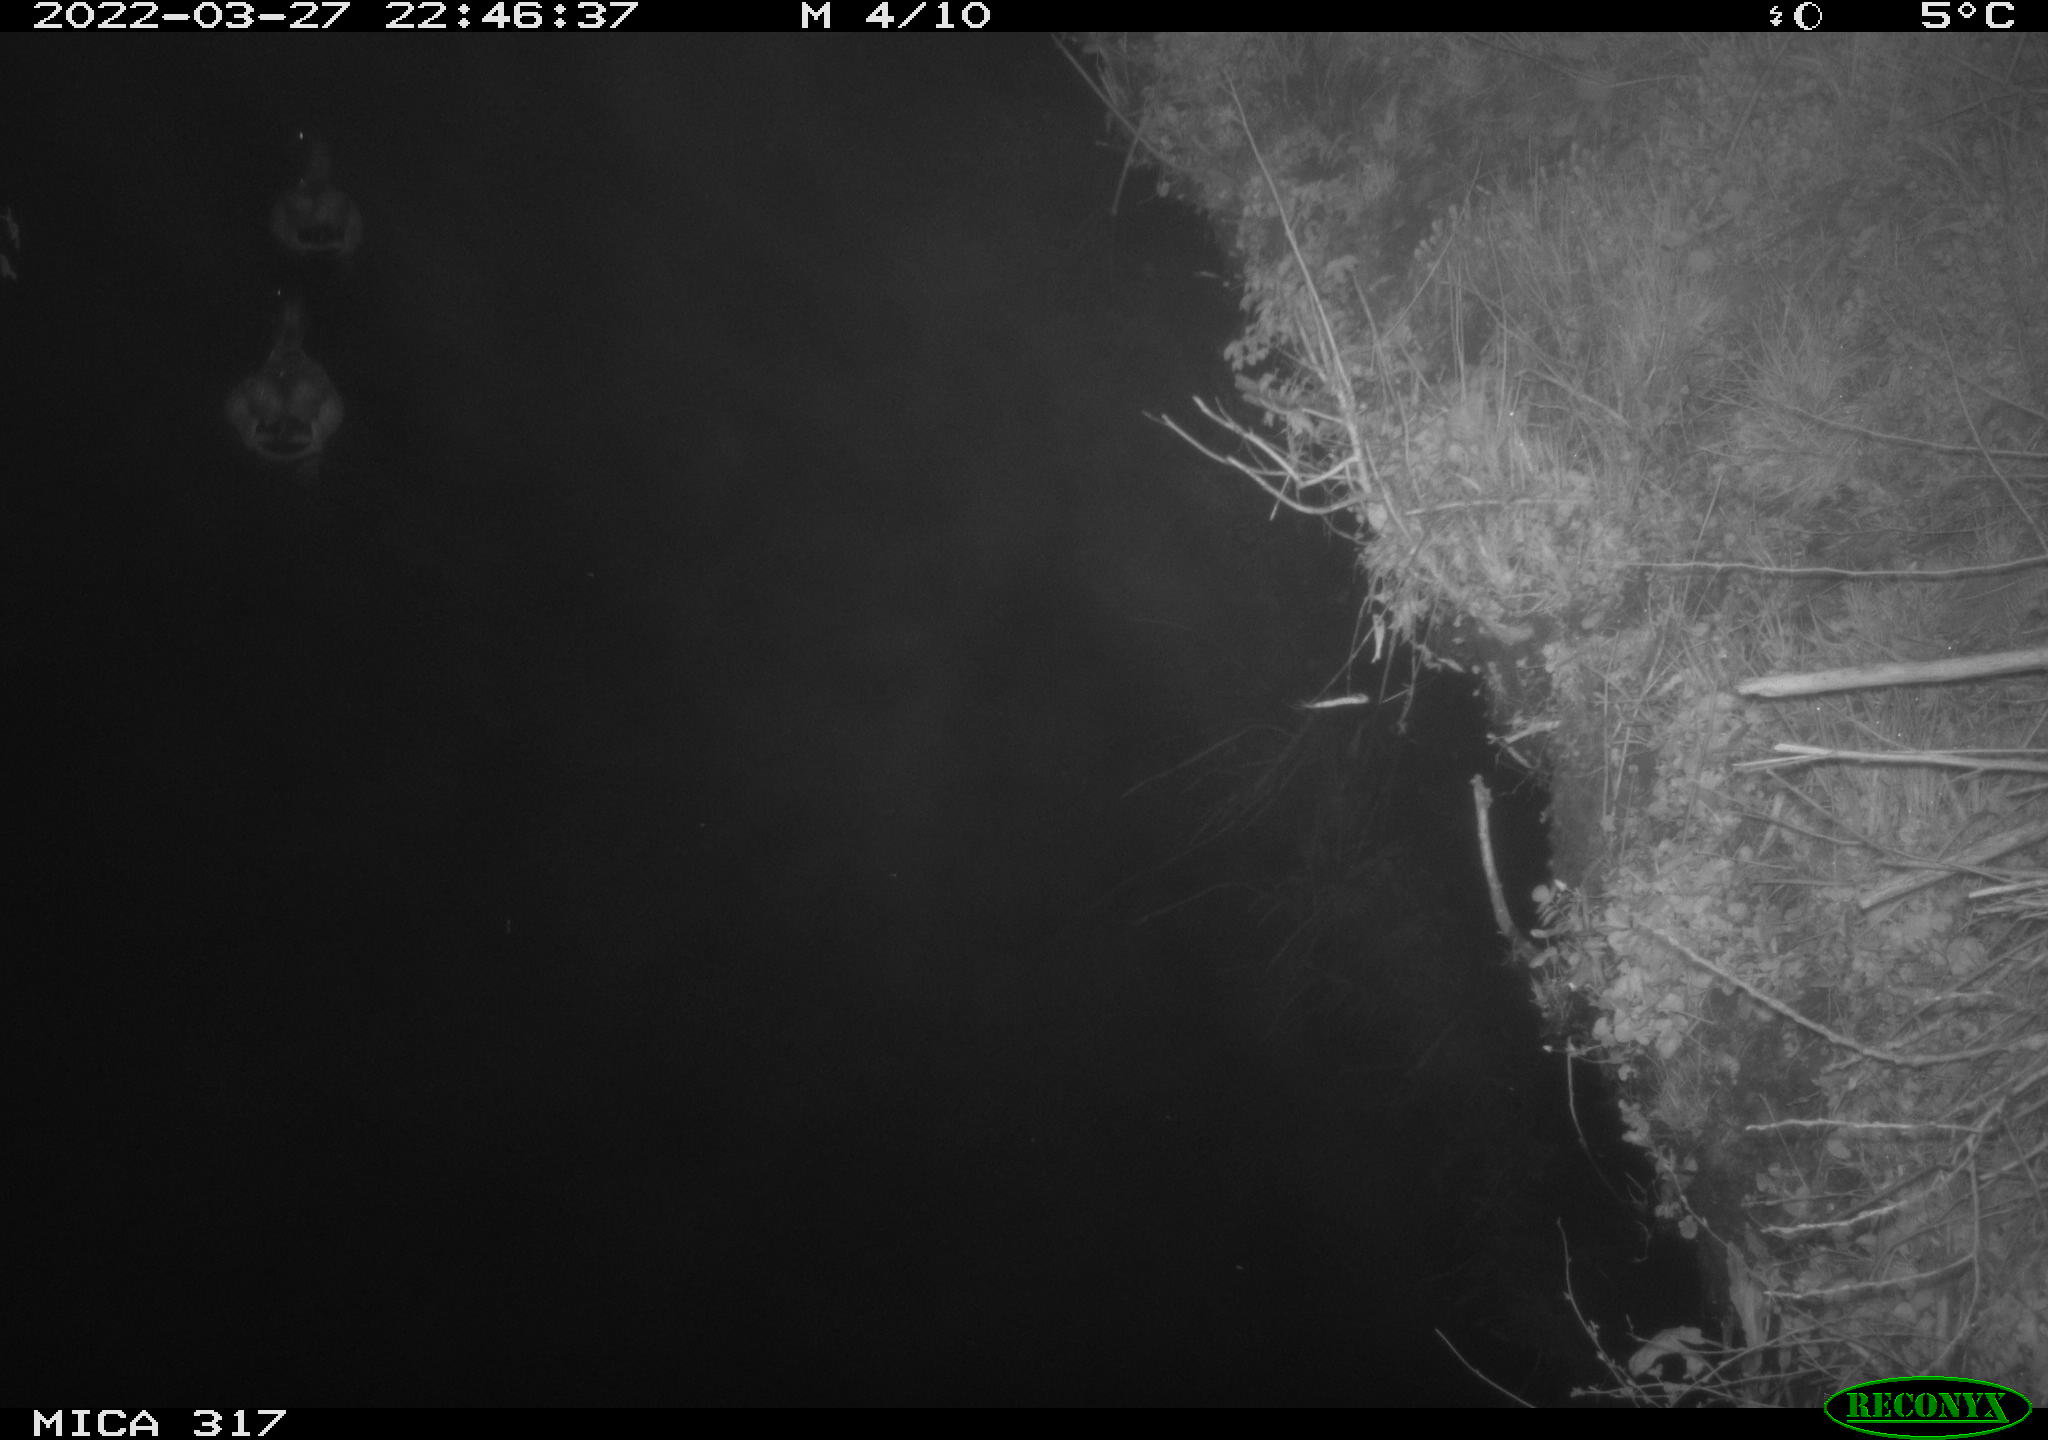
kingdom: Animalia
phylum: Chordata
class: Aves
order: Anseriformes
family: Anatidae
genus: Anas
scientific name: Anas platyrhynchos
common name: Mallard
